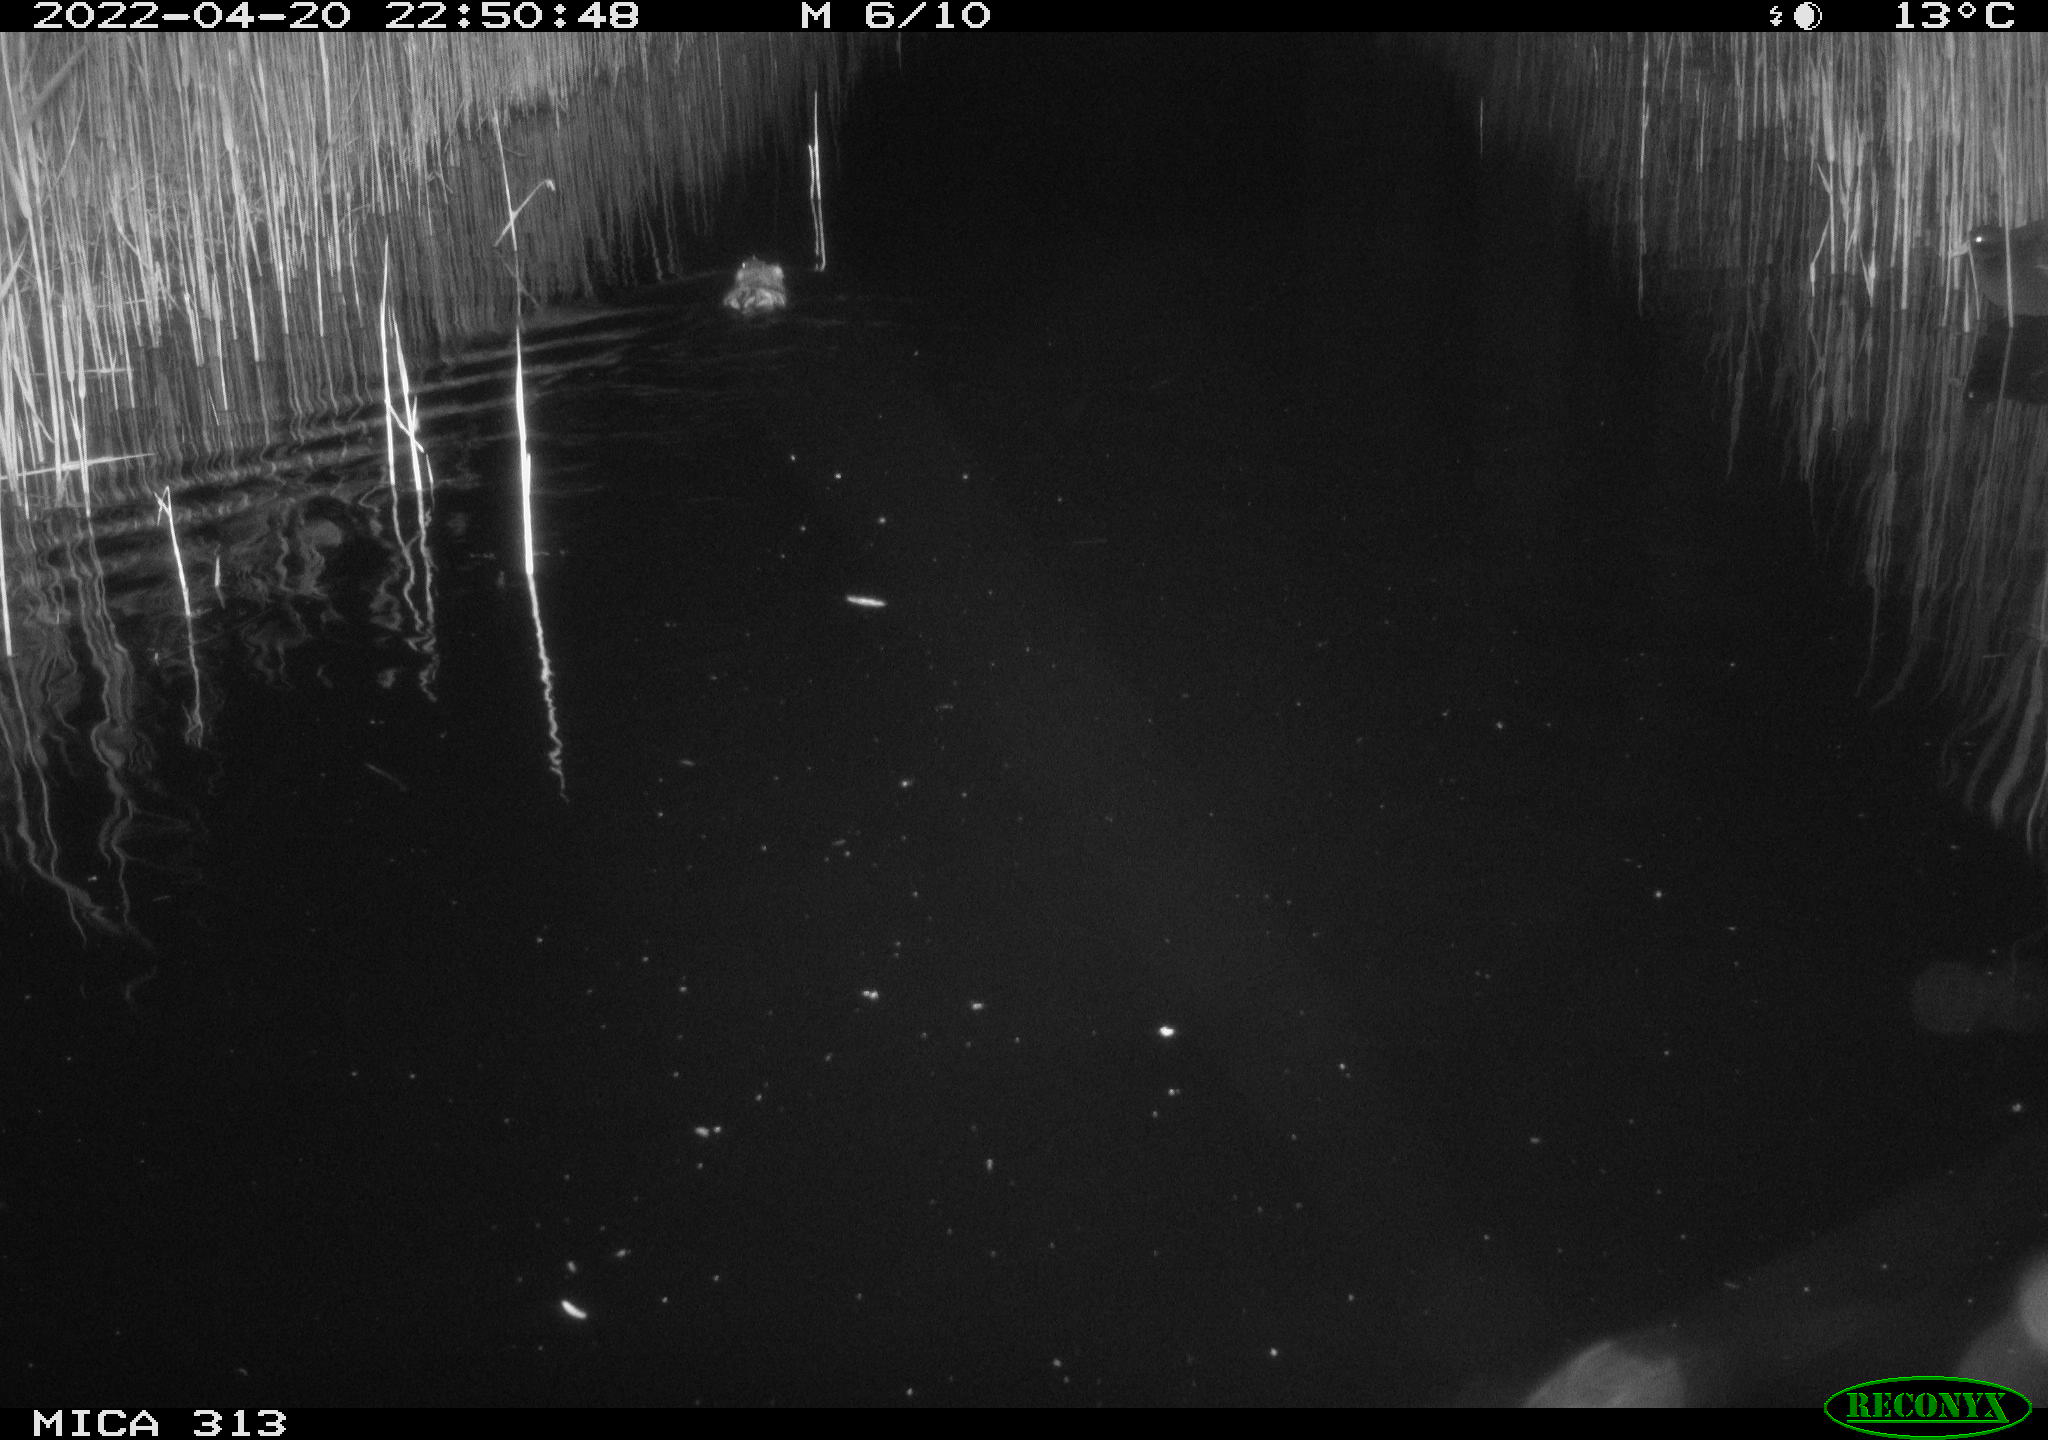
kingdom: Animalia
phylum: Chordata
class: Mammalia
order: Rodentia
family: Cricetidae
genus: Ondatra
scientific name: Ondatra zibethicus
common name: Muskrat
